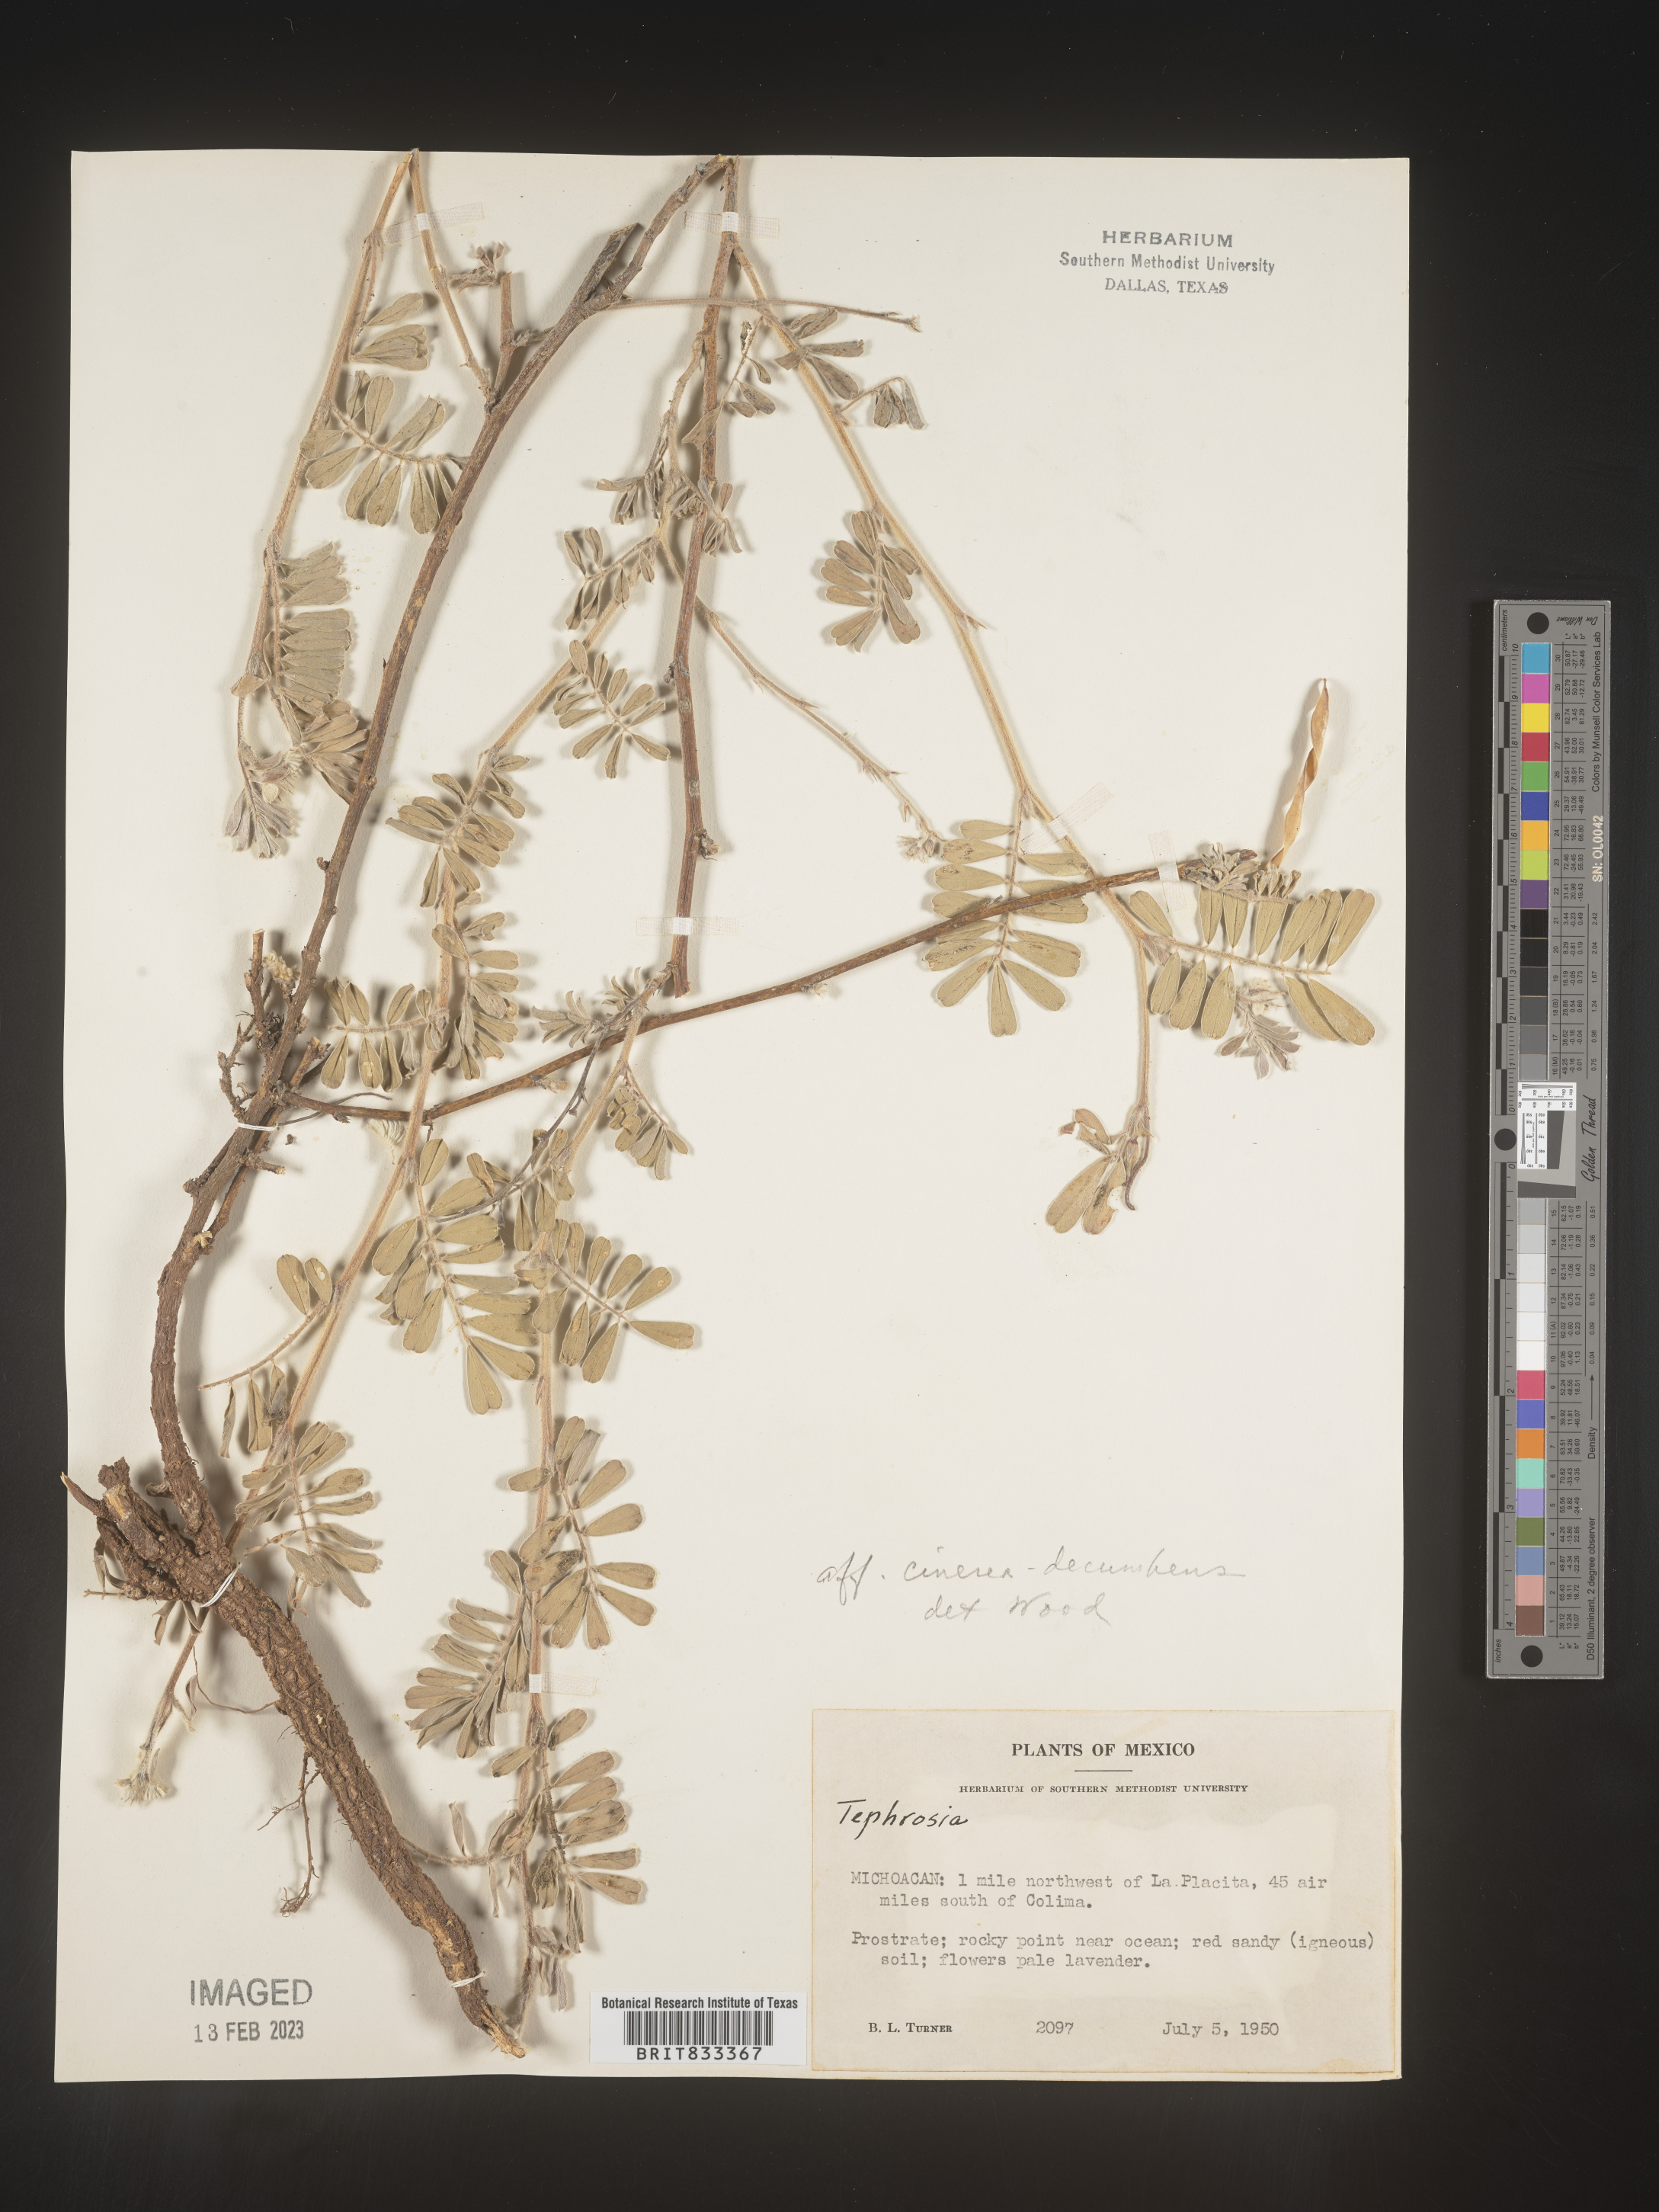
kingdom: Plantae
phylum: Tracheophyta
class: Magnoliopsida
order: Fabales
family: Fabaceae
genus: Tephrosia
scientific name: Tephrosia
